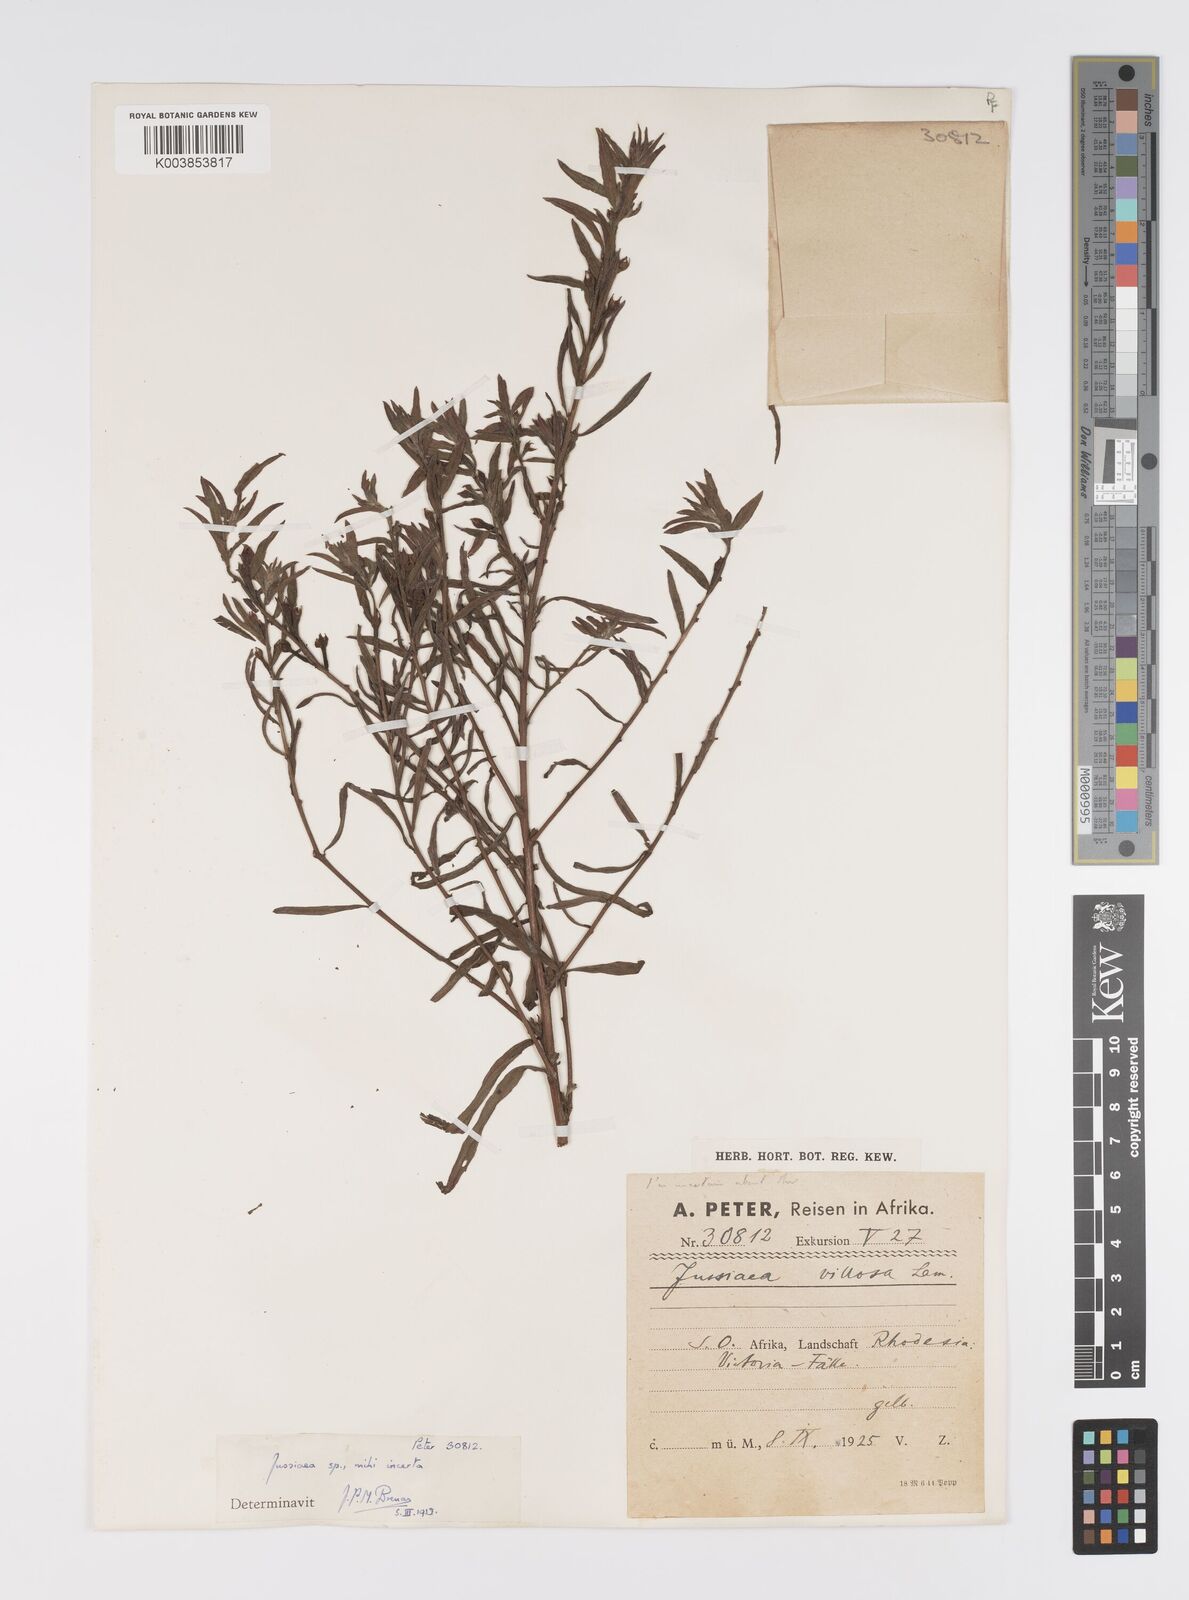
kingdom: Plantae
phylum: Tracheophyta
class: Magnoliopsida
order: Myrtales
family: Onagraceae
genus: Ludwigia
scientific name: Ludwigia
